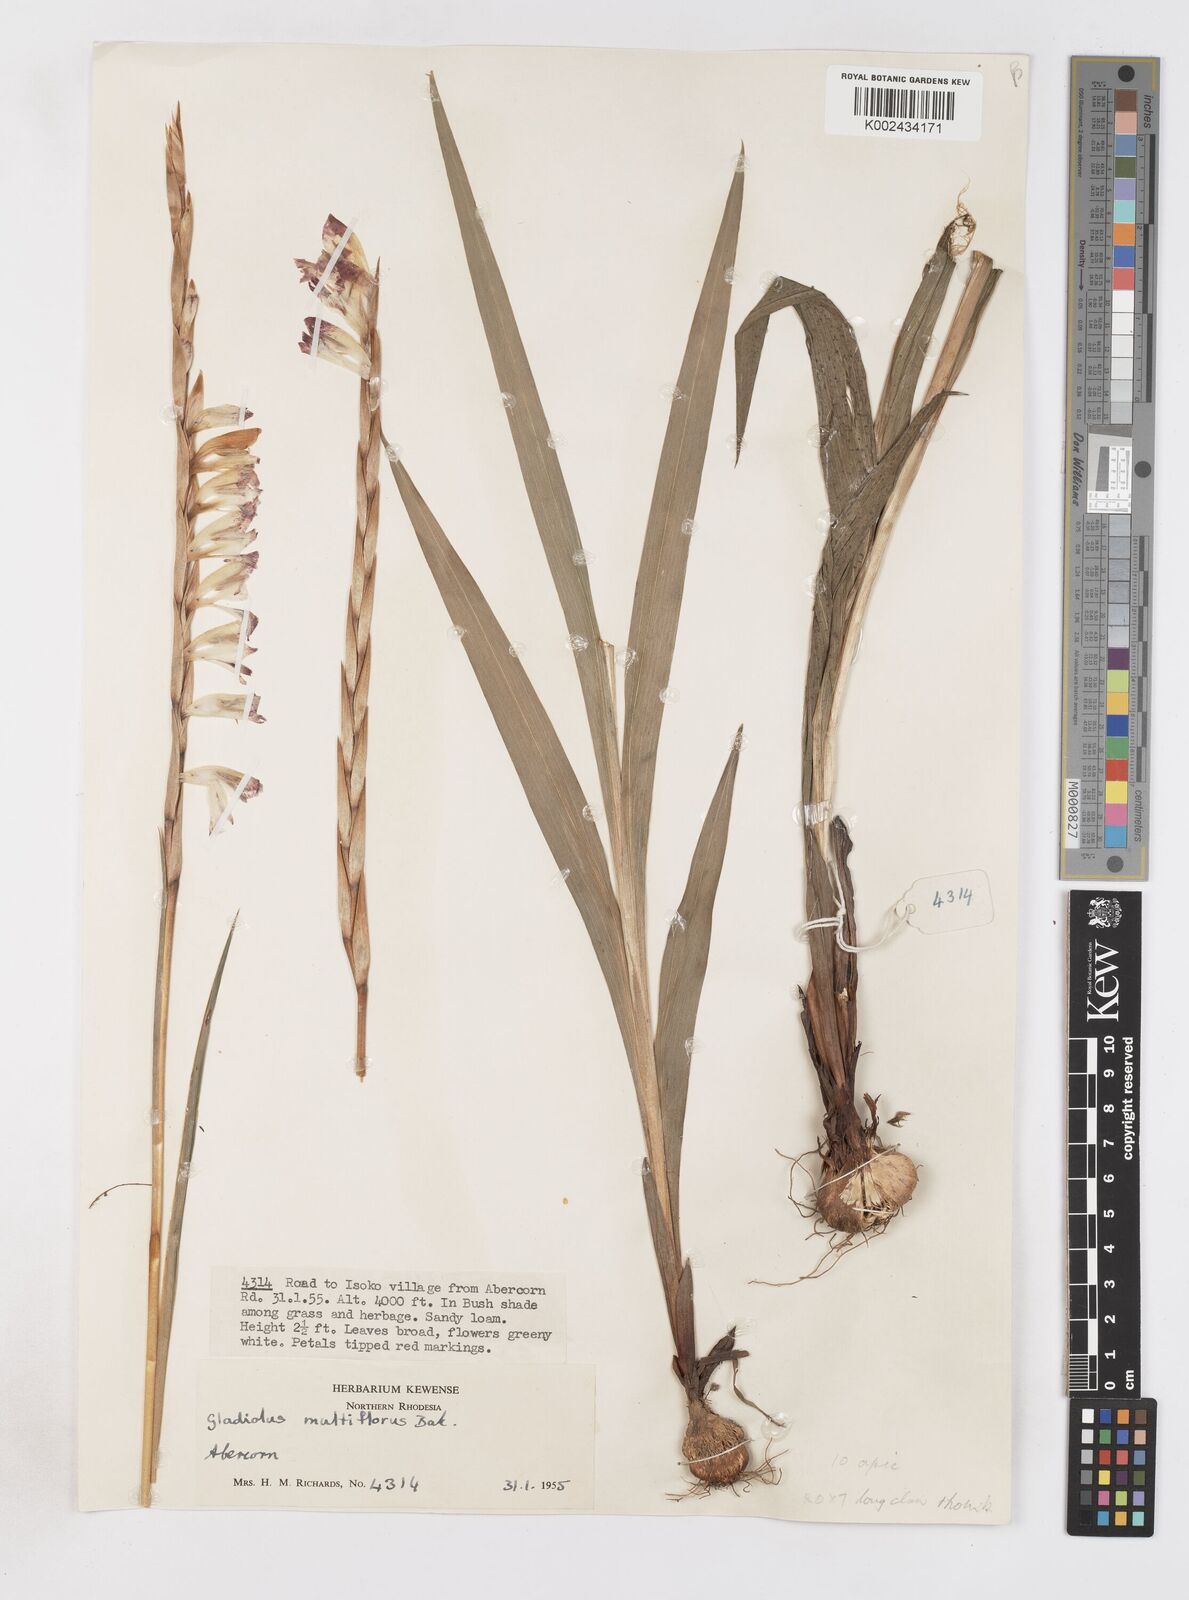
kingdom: Plantae
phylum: Tracheophyta
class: Liliopsida
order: Asparagales
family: Iridaceae
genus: Gladiolus
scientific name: Gladiolus gregarius
